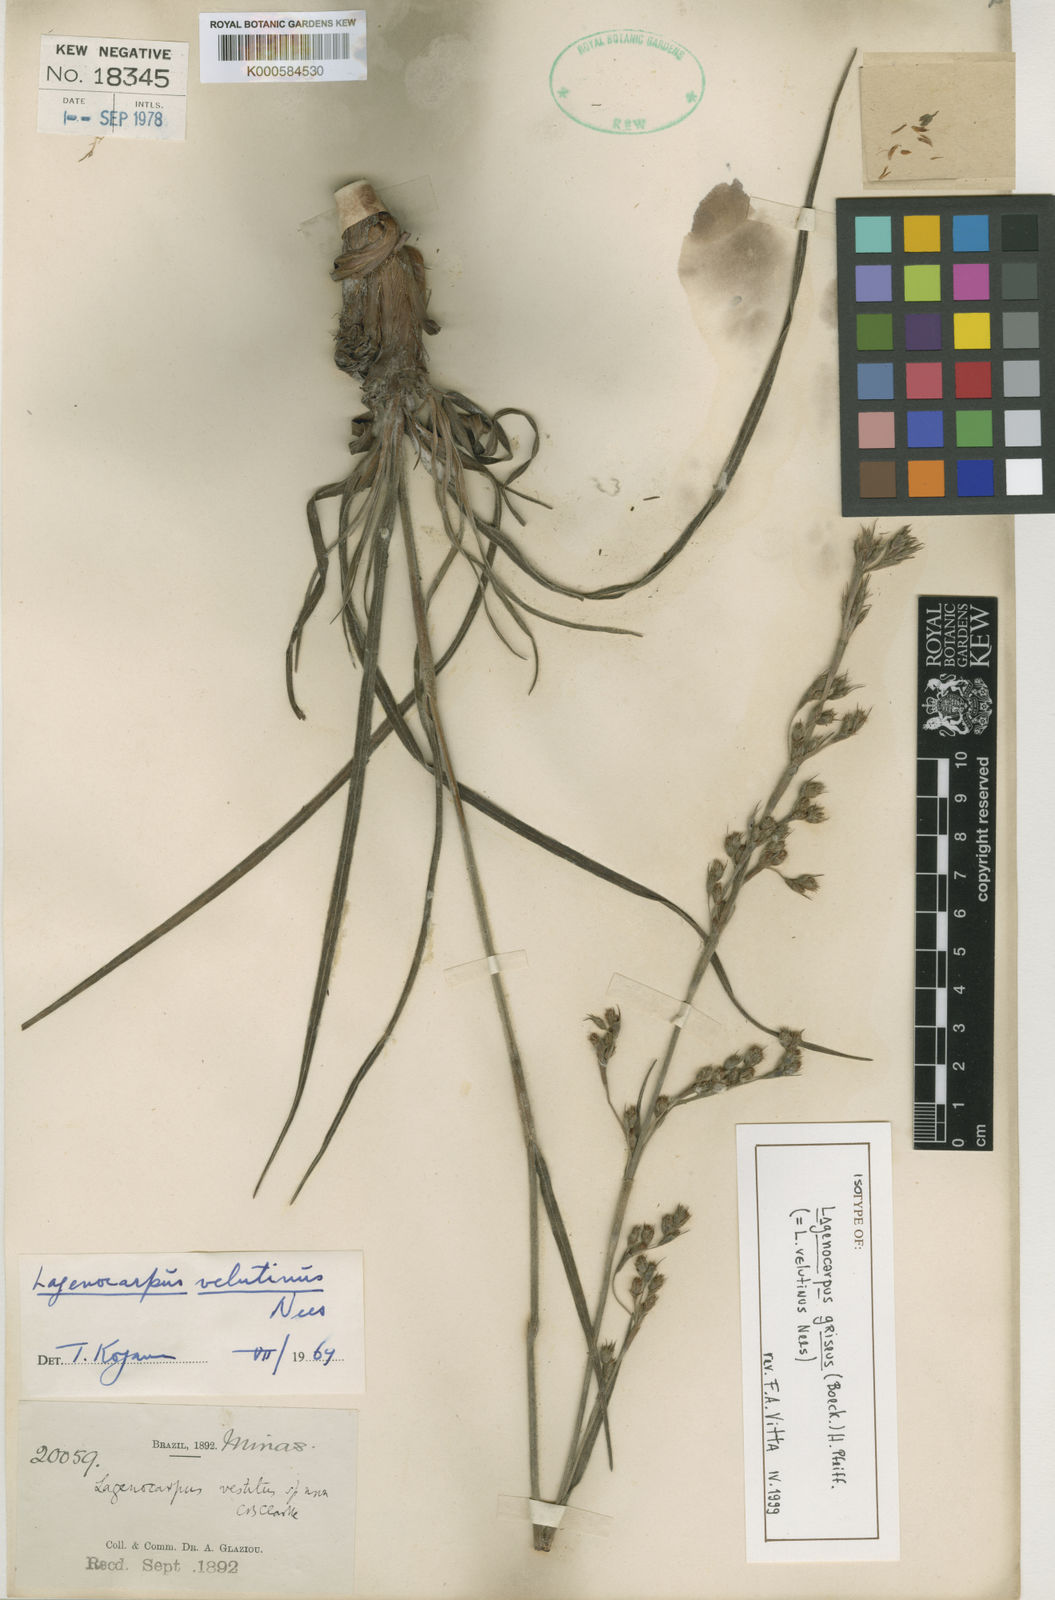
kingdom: Plantae
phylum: Tracheophyta
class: Liliopsida
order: Poales
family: Cyperaceae
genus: Lagenocarpus
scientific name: Lagenocarpus griseus
